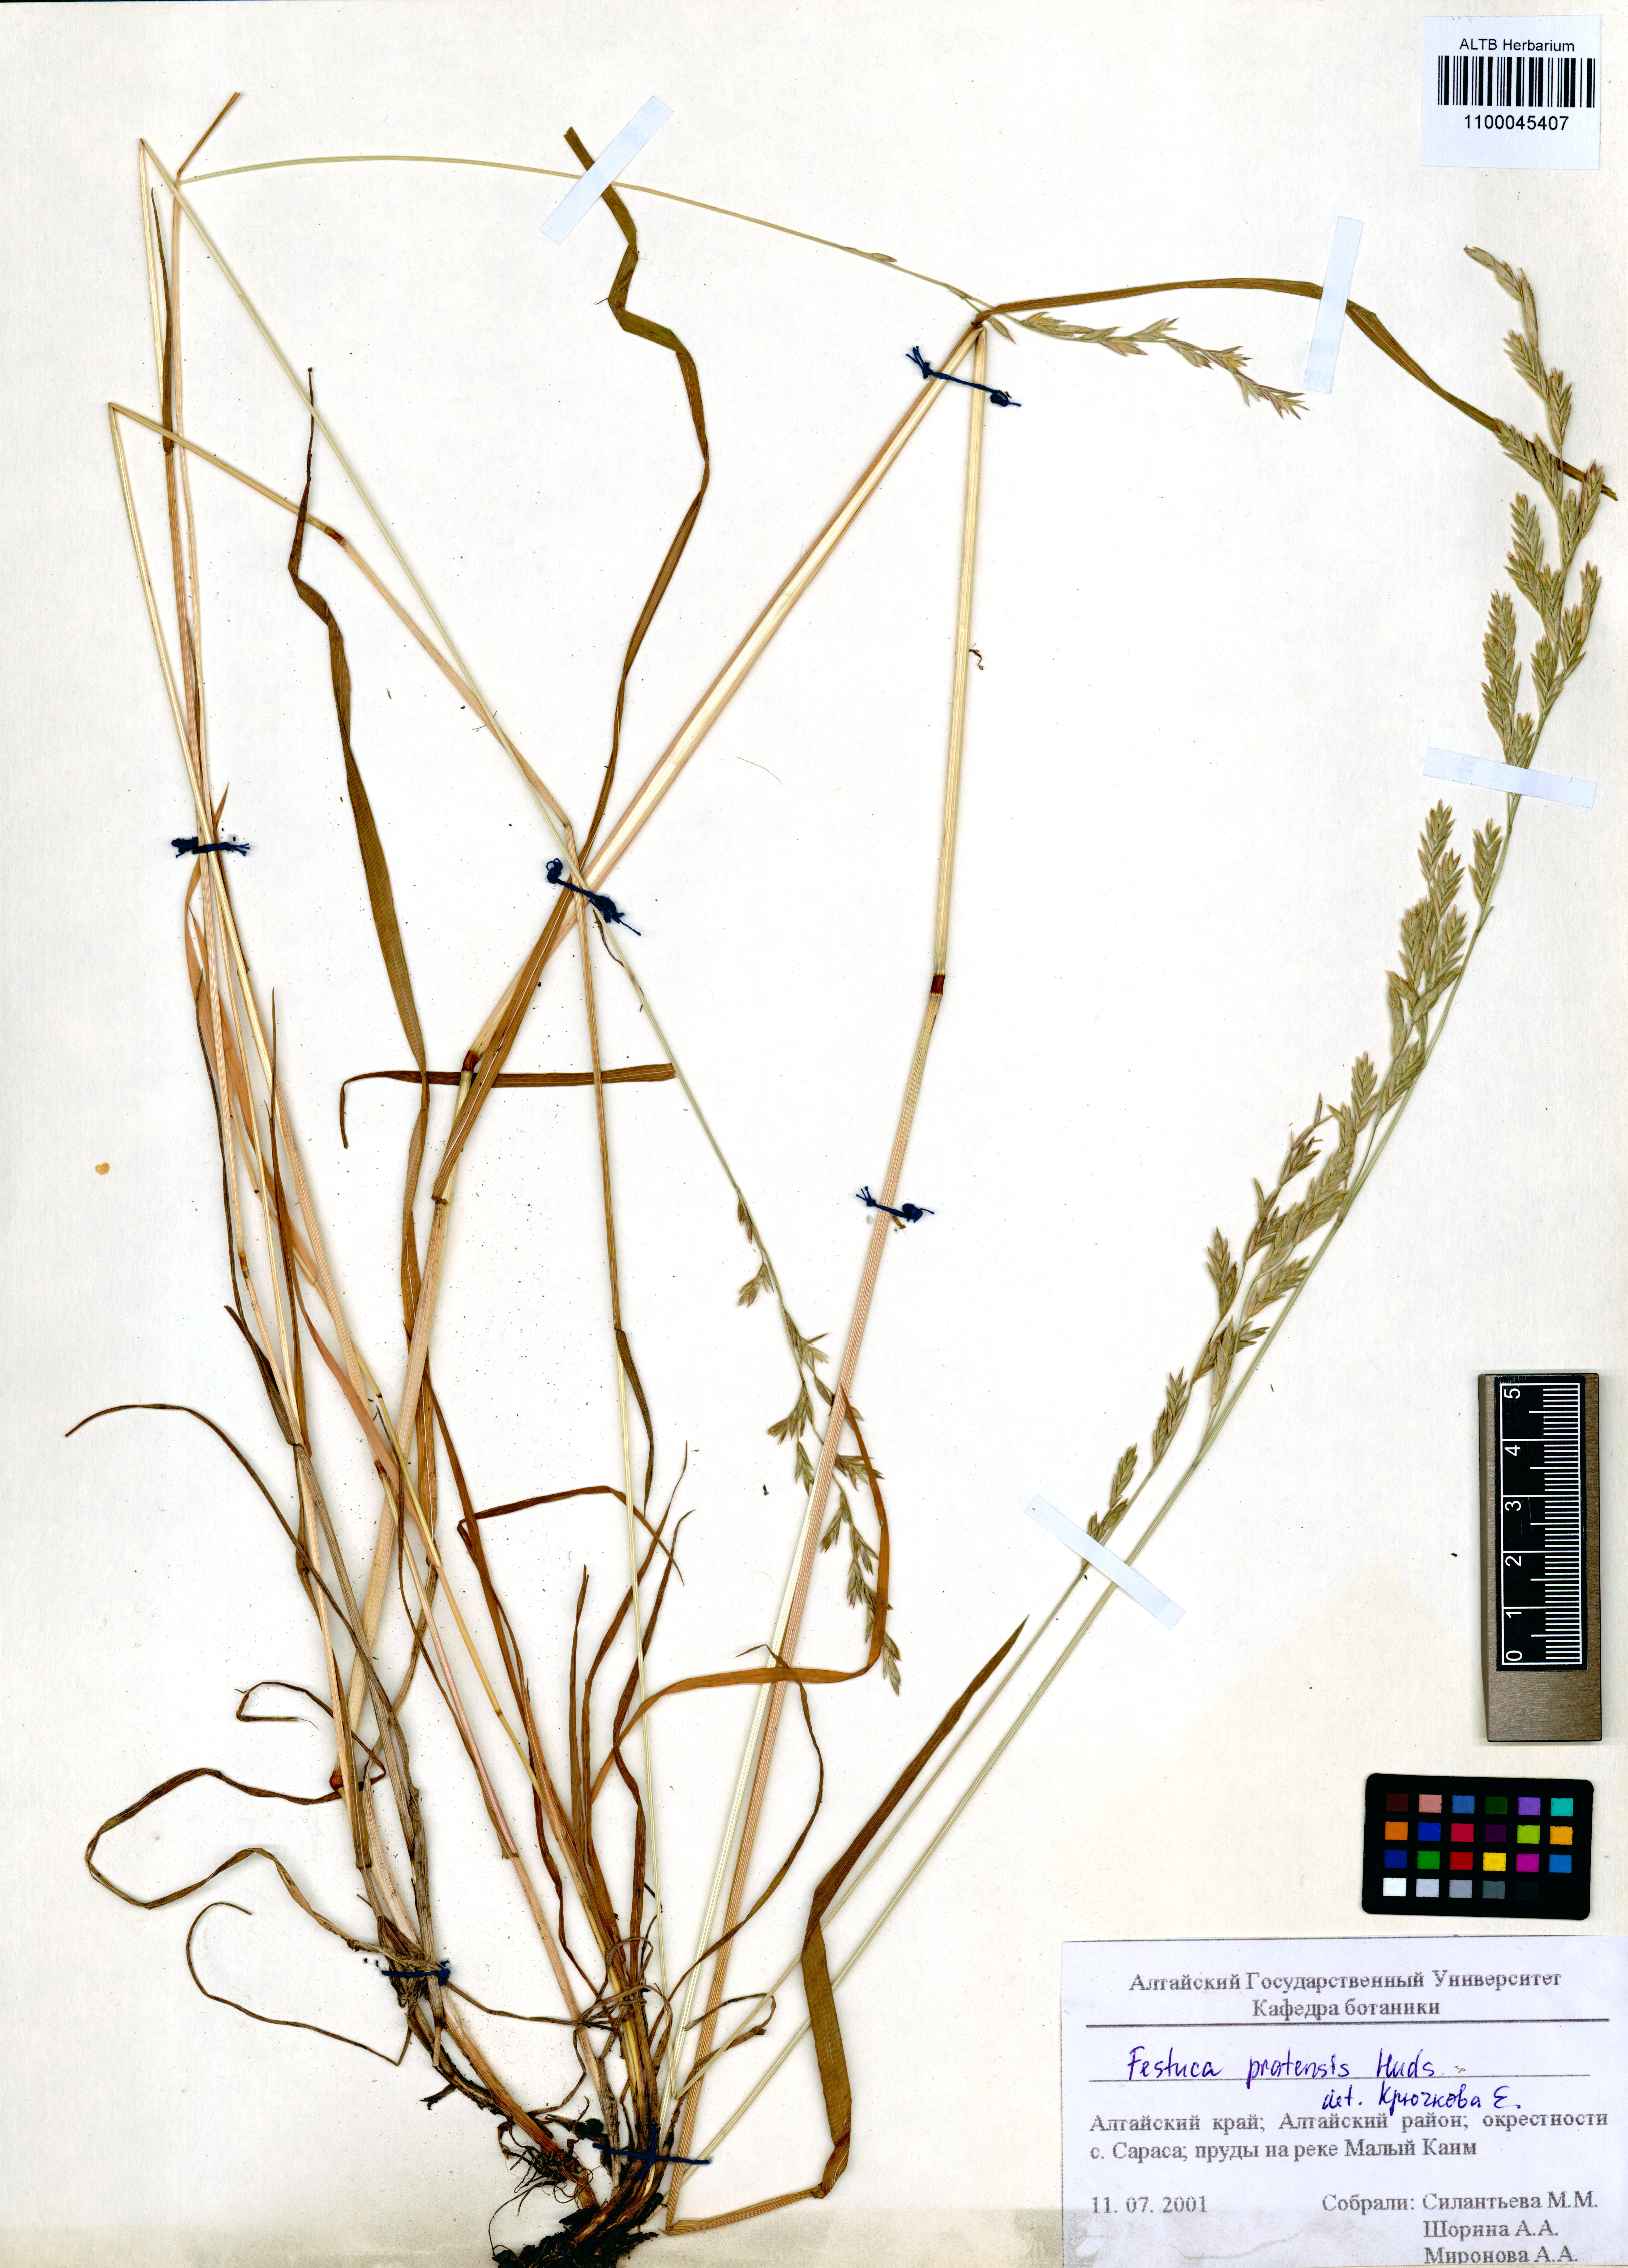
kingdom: Plantae
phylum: Tracheophyta
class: Liliopsida
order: Poales
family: Poaceae
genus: Lolium
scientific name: Lolium pratense
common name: Dover grass
